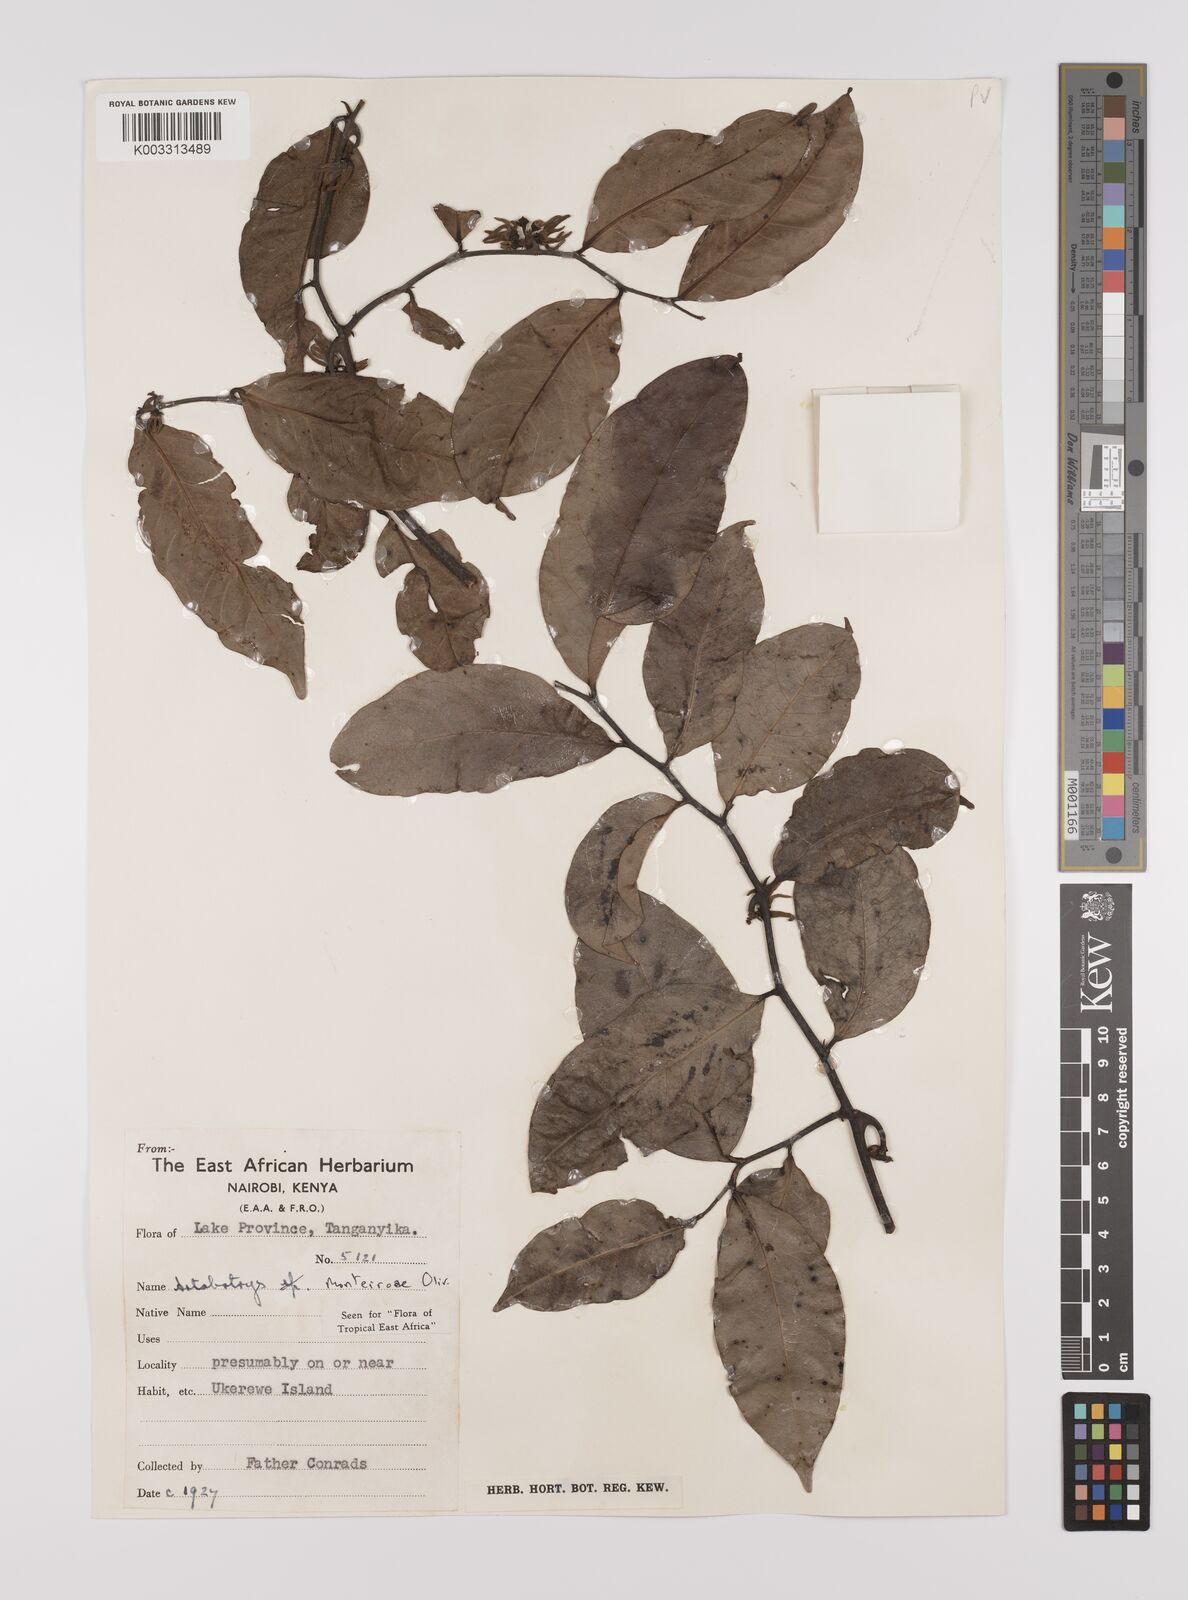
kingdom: Plantae
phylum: Tracheophyta
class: Magnoliopsida
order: Magnoliales
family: Annonaceae
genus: Artabotrys
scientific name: Artabotrys monteiroae
